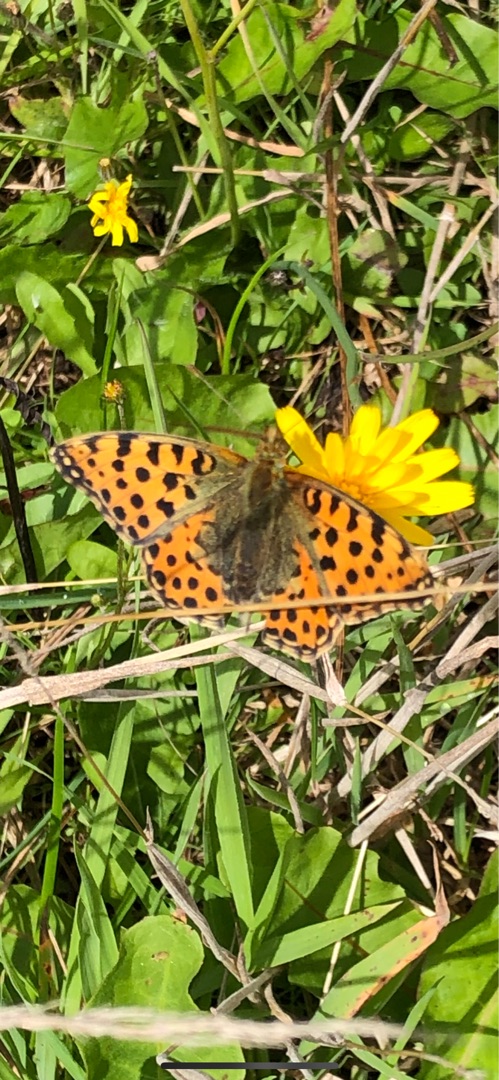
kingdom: Animalia
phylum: Arthropoda
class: Insecta
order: Lepidoptera
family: Nymphalidae
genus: Issoria
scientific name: Issoria lathonia
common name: Storplettet perlemorsommerfugl
